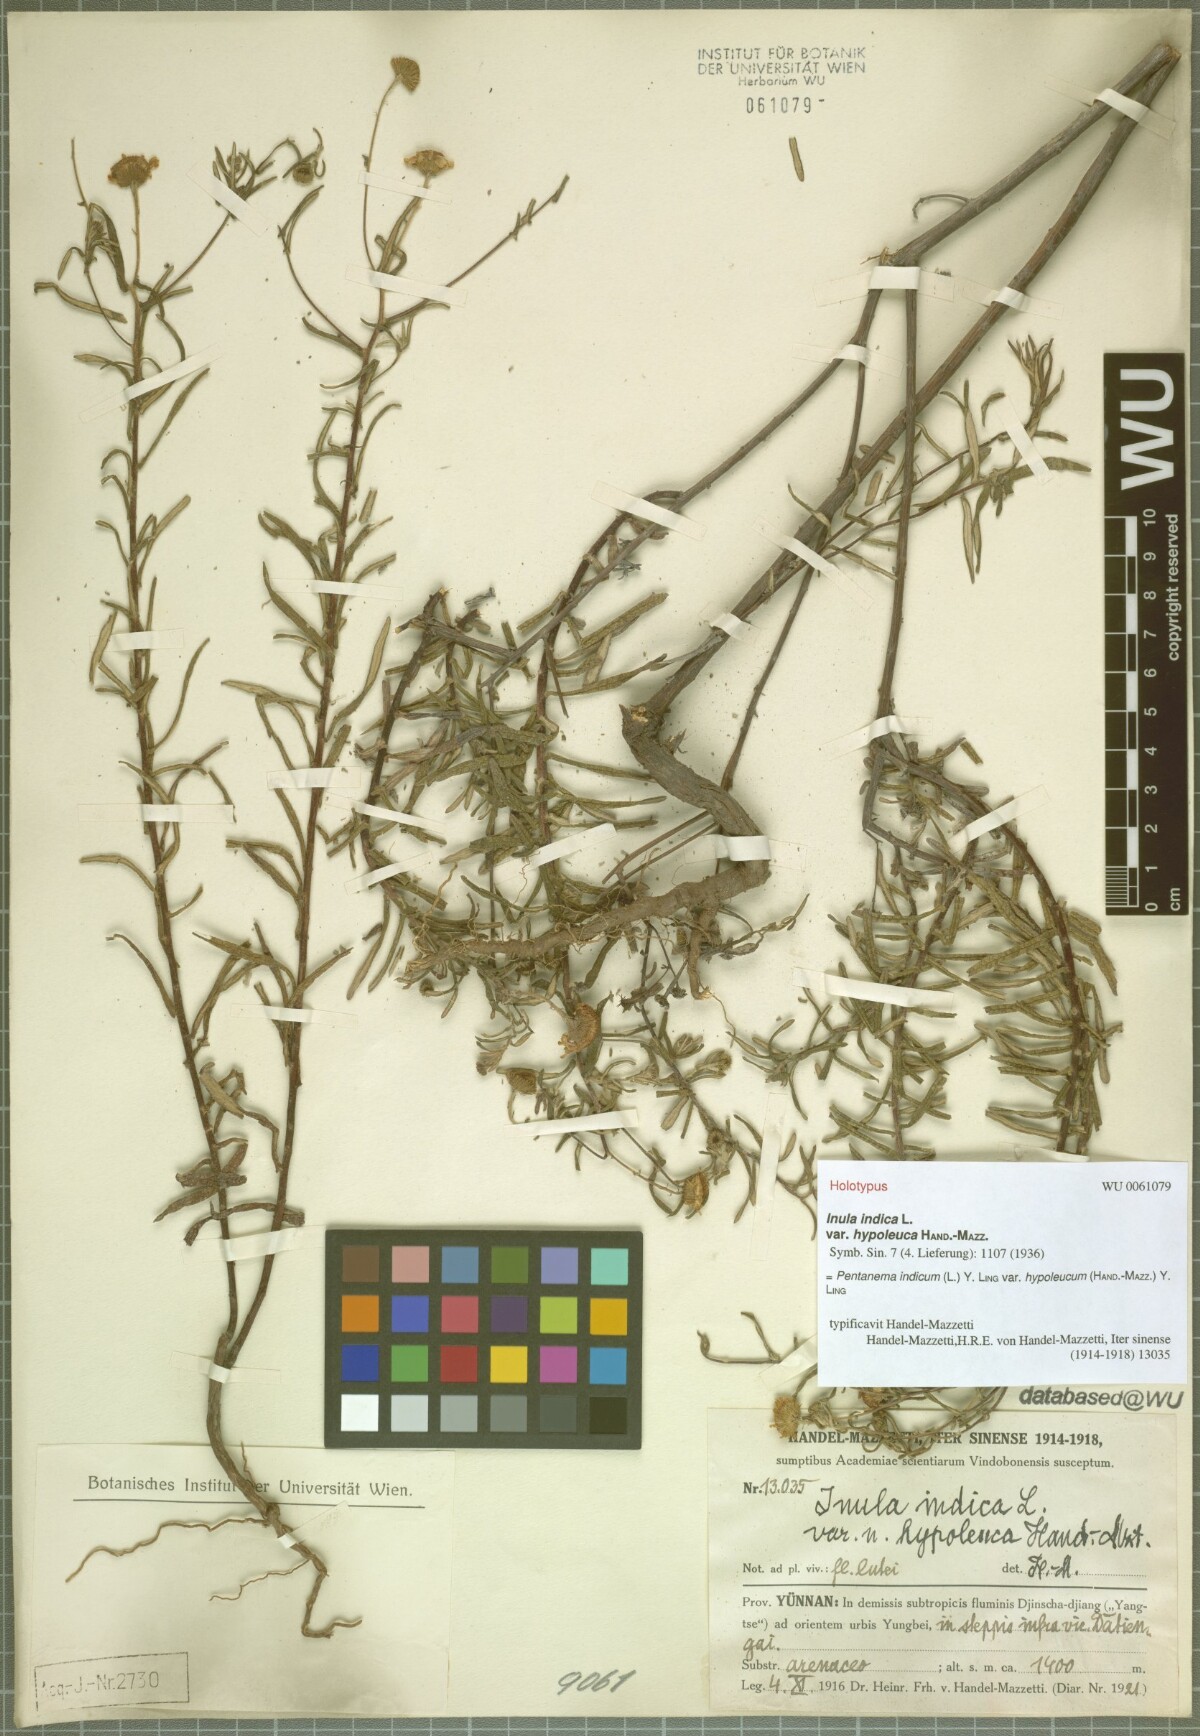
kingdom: Plantae
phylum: Tracheophyta
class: Magnoliopsida
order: Asterales
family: Asteraceae
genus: Vicoa
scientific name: Vicoa indica
